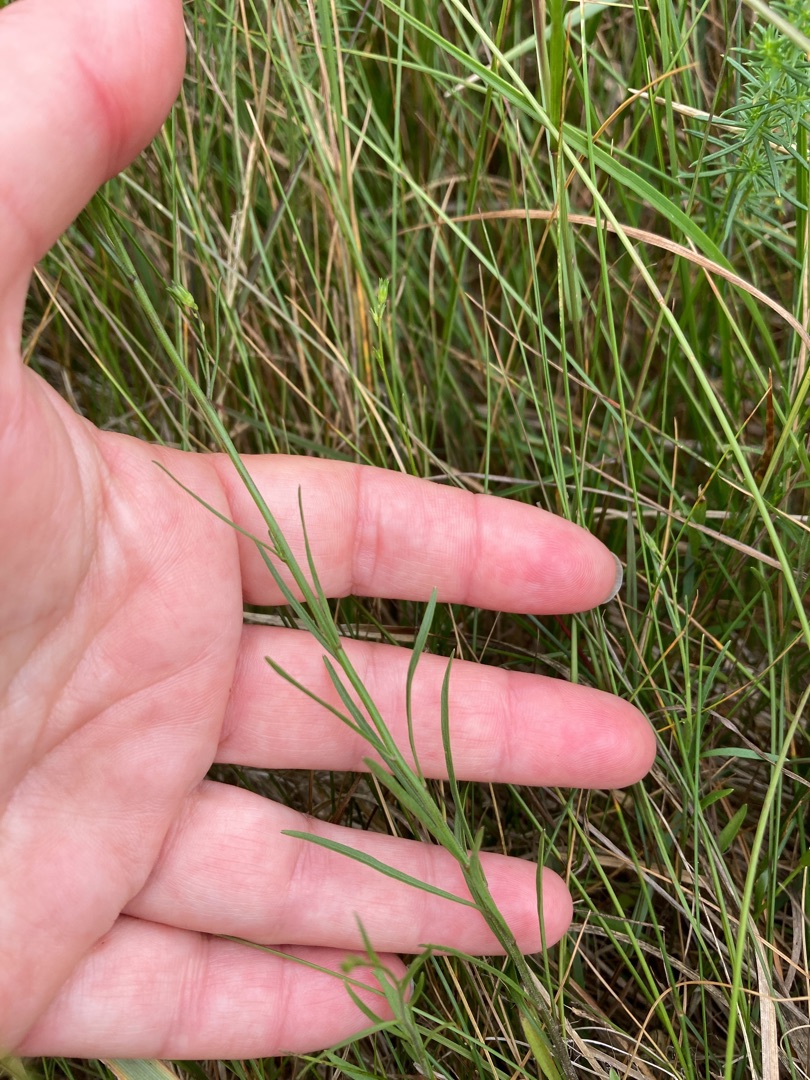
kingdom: Plantae
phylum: Tracheophyta
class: Magnoliopsida
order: Asterales
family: Campanulaceae
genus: Campanula
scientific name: Campanula rotundifolia
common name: Liden klokke
